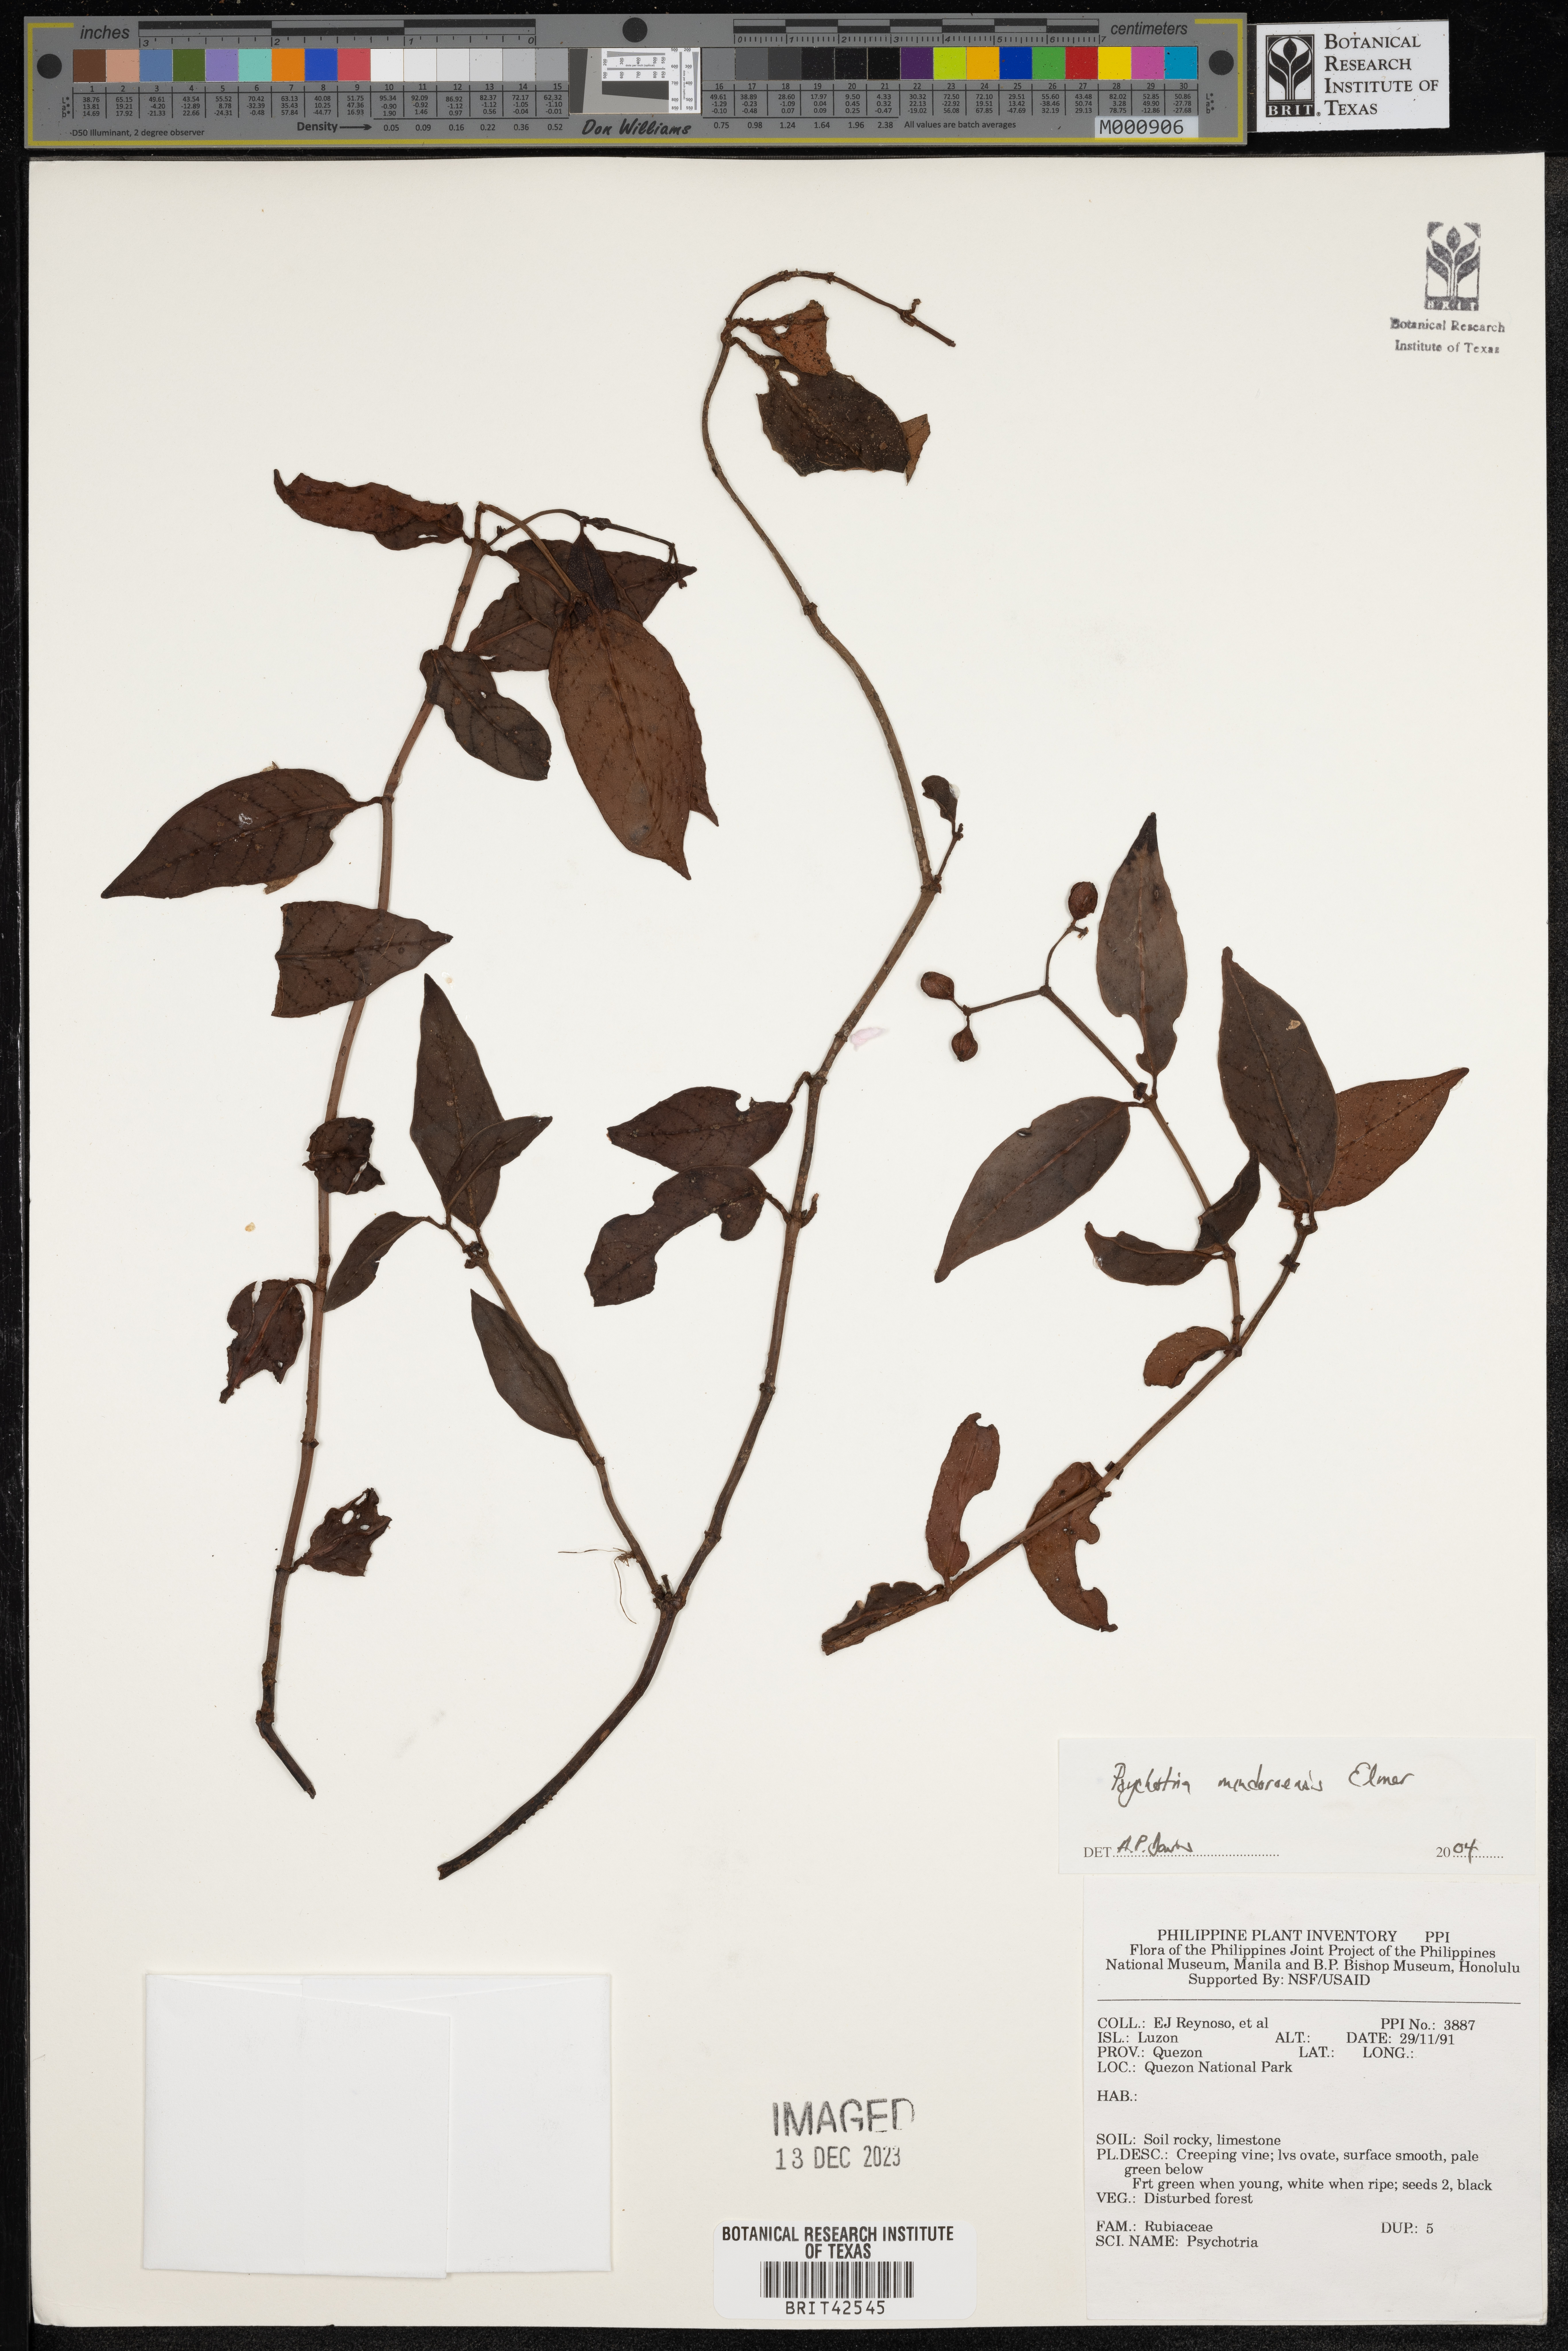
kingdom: Plantae
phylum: Tracheophyta
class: Magnoliopsida
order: Gentianales
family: Rubiaceae
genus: Psychotria
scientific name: Psychotria mindoroensis
